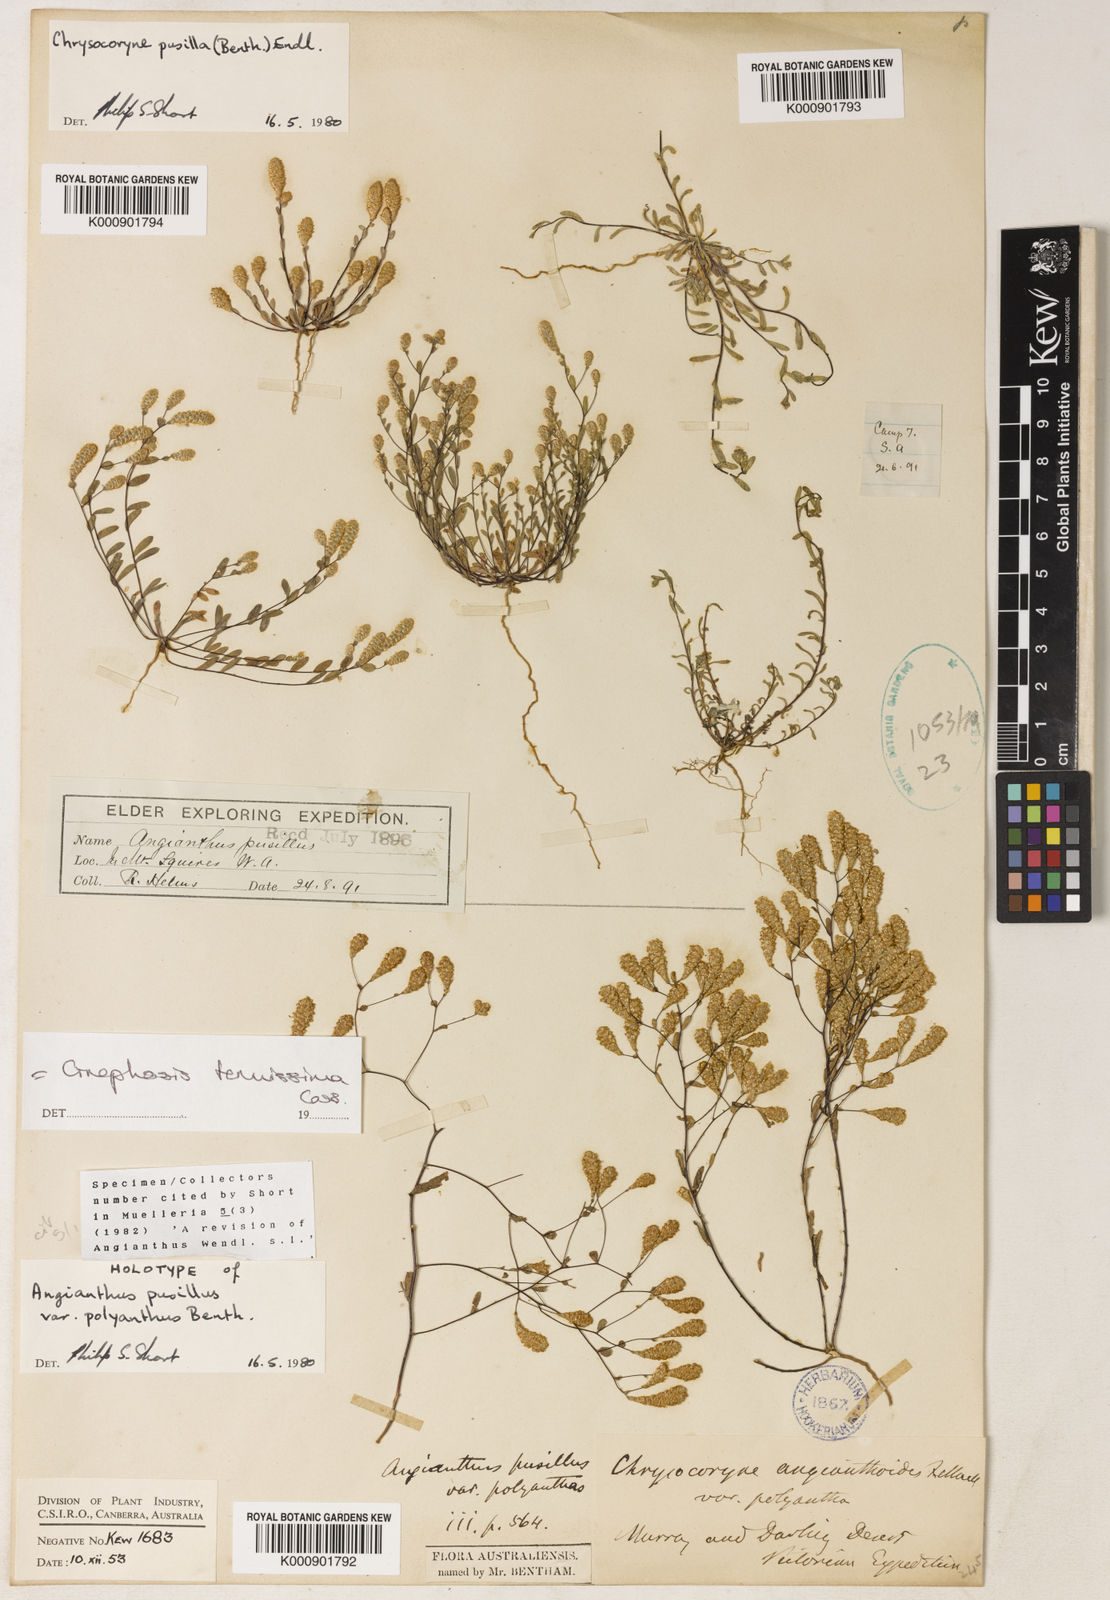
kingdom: Plantae
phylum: Tracheophyta
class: Magnoliopsida
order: Asterales
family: Asteraceae
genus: Gnephosis
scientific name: Gnephosis tenuissima
